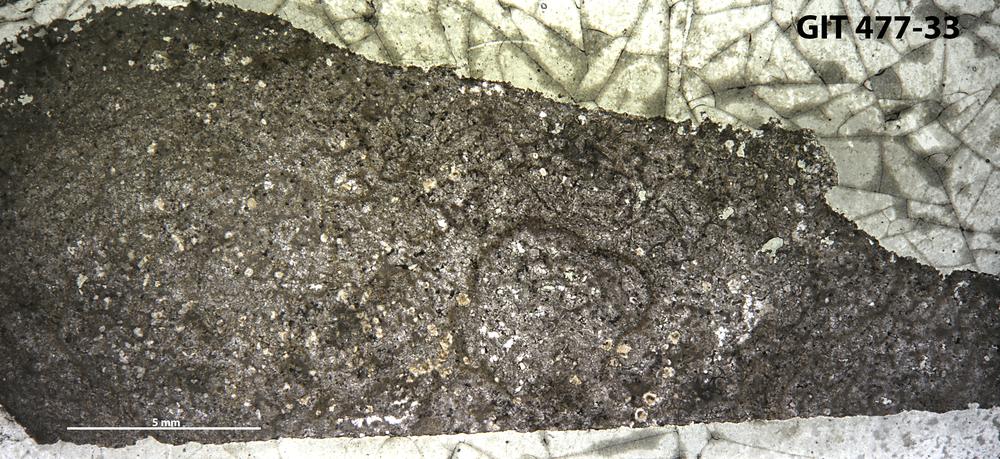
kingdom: Animalia
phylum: Porifera
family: Tienodictyidae
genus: Hammatostroma
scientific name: Hammatostroma albertense
